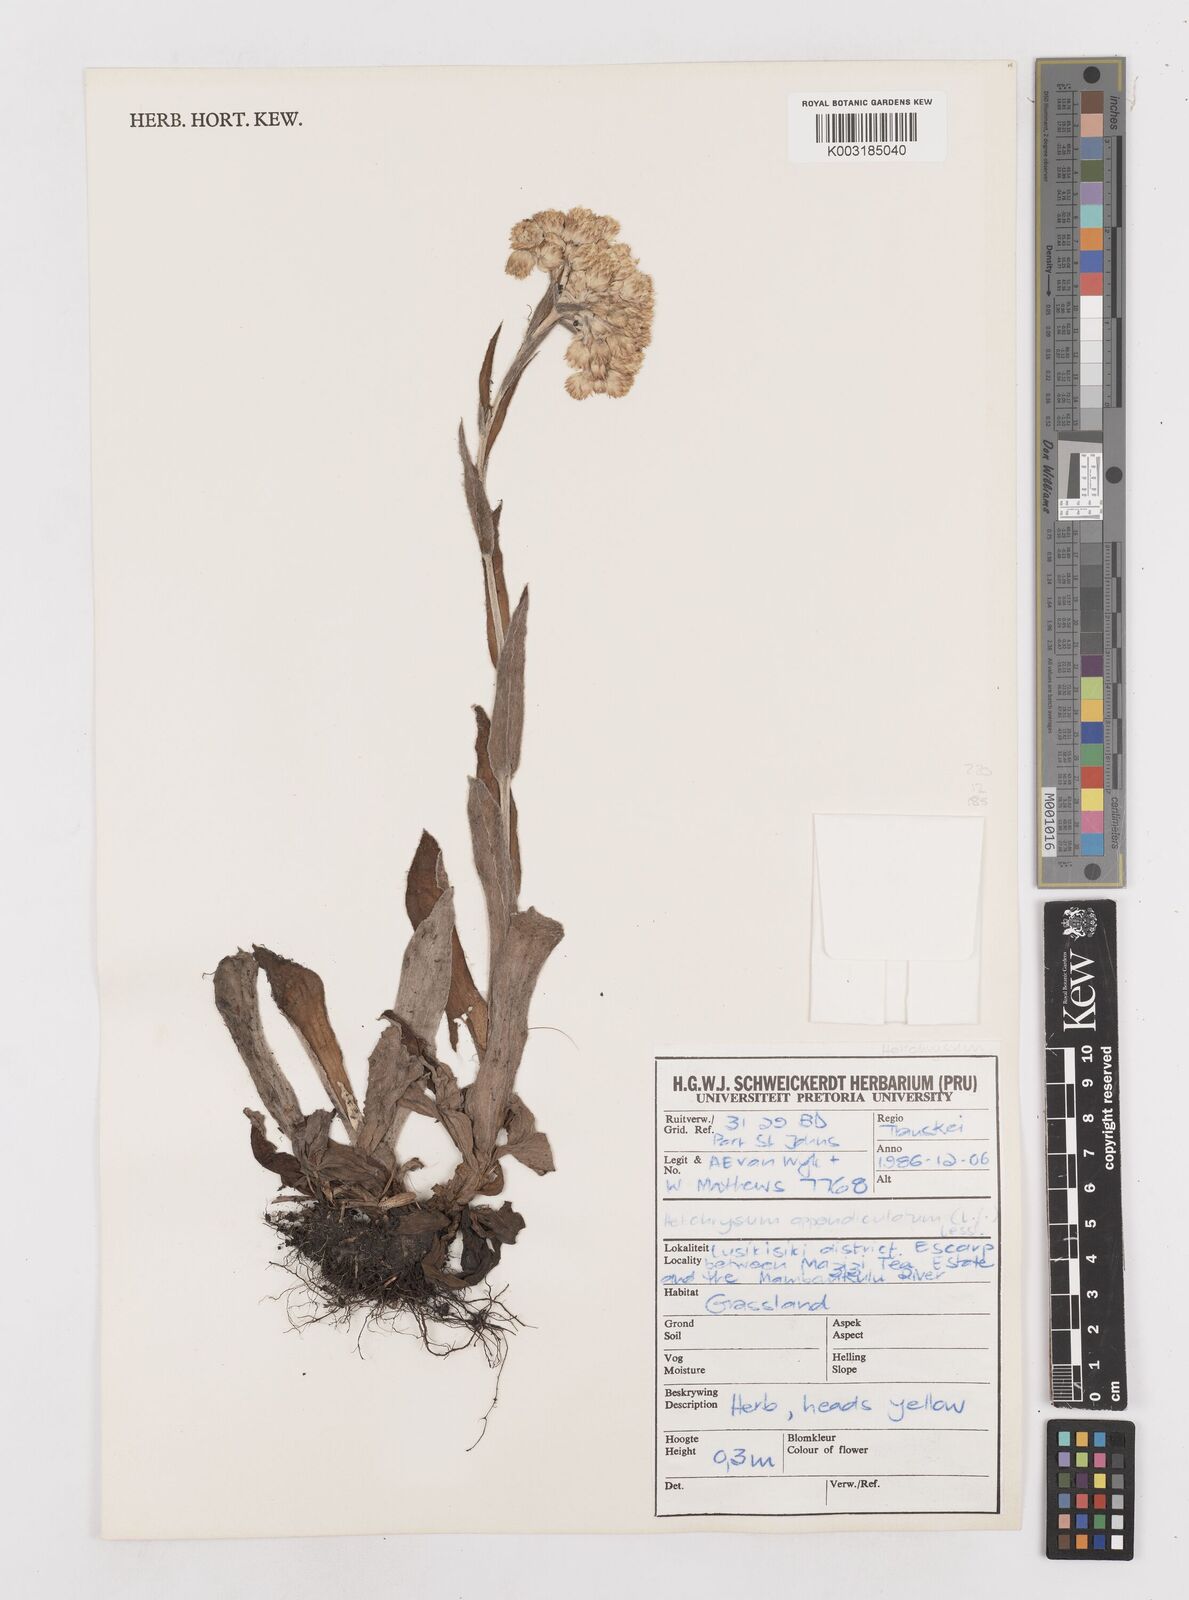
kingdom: Plantae
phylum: Tracheophyta
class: Magnoliopsida
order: Asterales
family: Asteraceae
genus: Helichrysum
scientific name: Helichrysum appendiculatum
